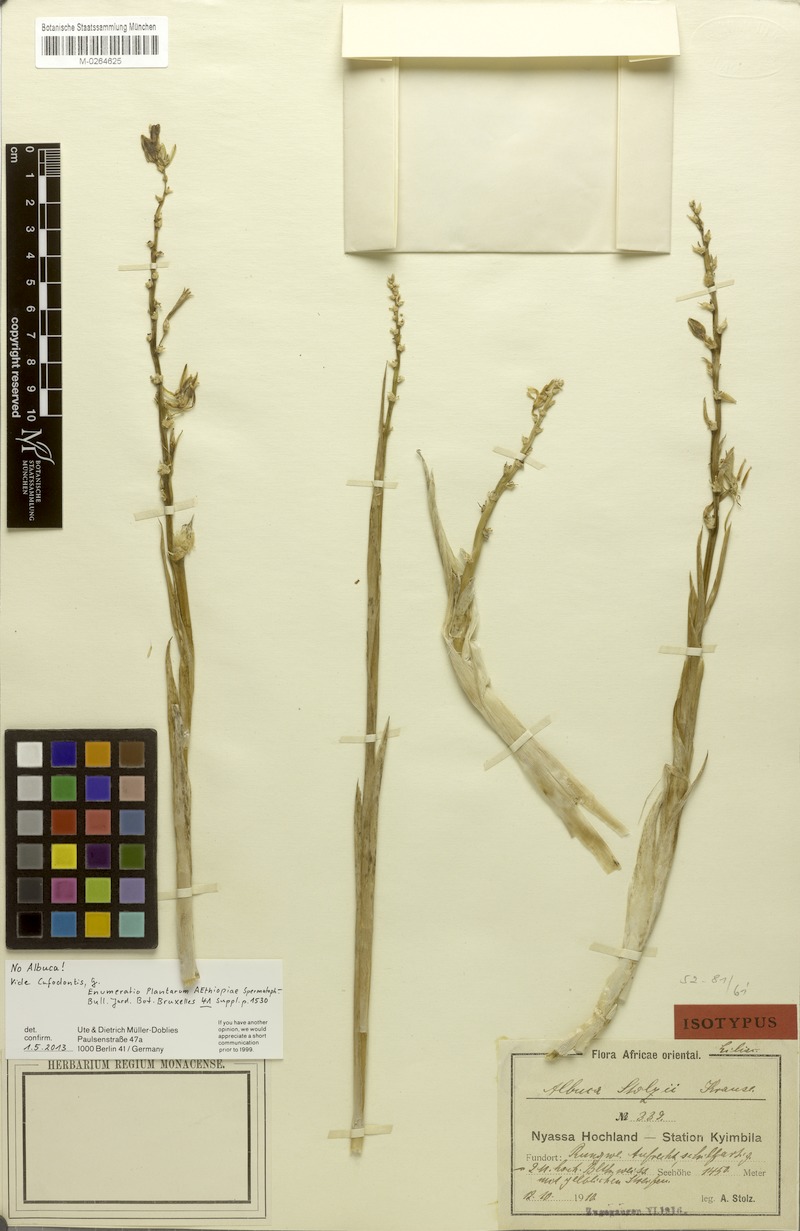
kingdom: Plantae
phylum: Tracheophyta
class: Liliopsida
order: Asparagales
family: Asparagaceae
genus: Chlorophytum
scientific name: Chlorophytum stolzii
